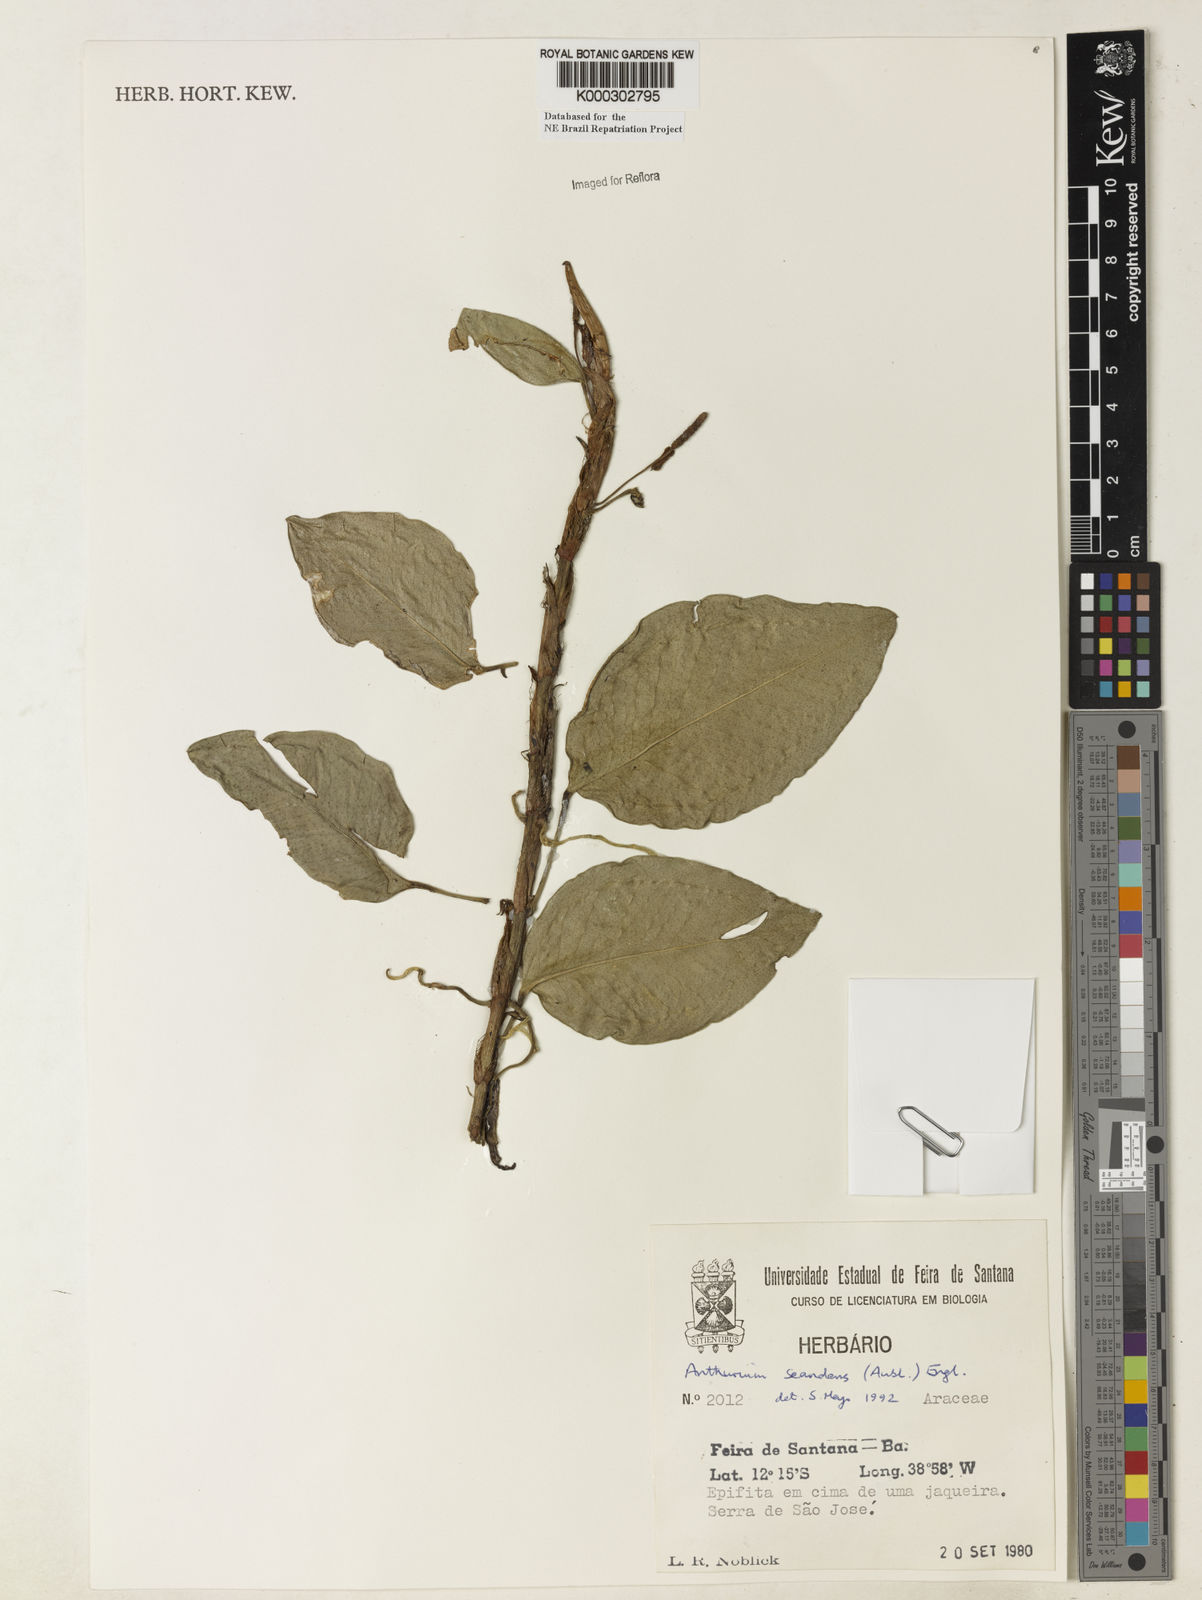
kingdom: Plantae
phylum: Tracheophyta
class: Liliopsida
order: Alismatales
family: Araceae
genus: Anthurium
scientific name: Anthurium scandens
